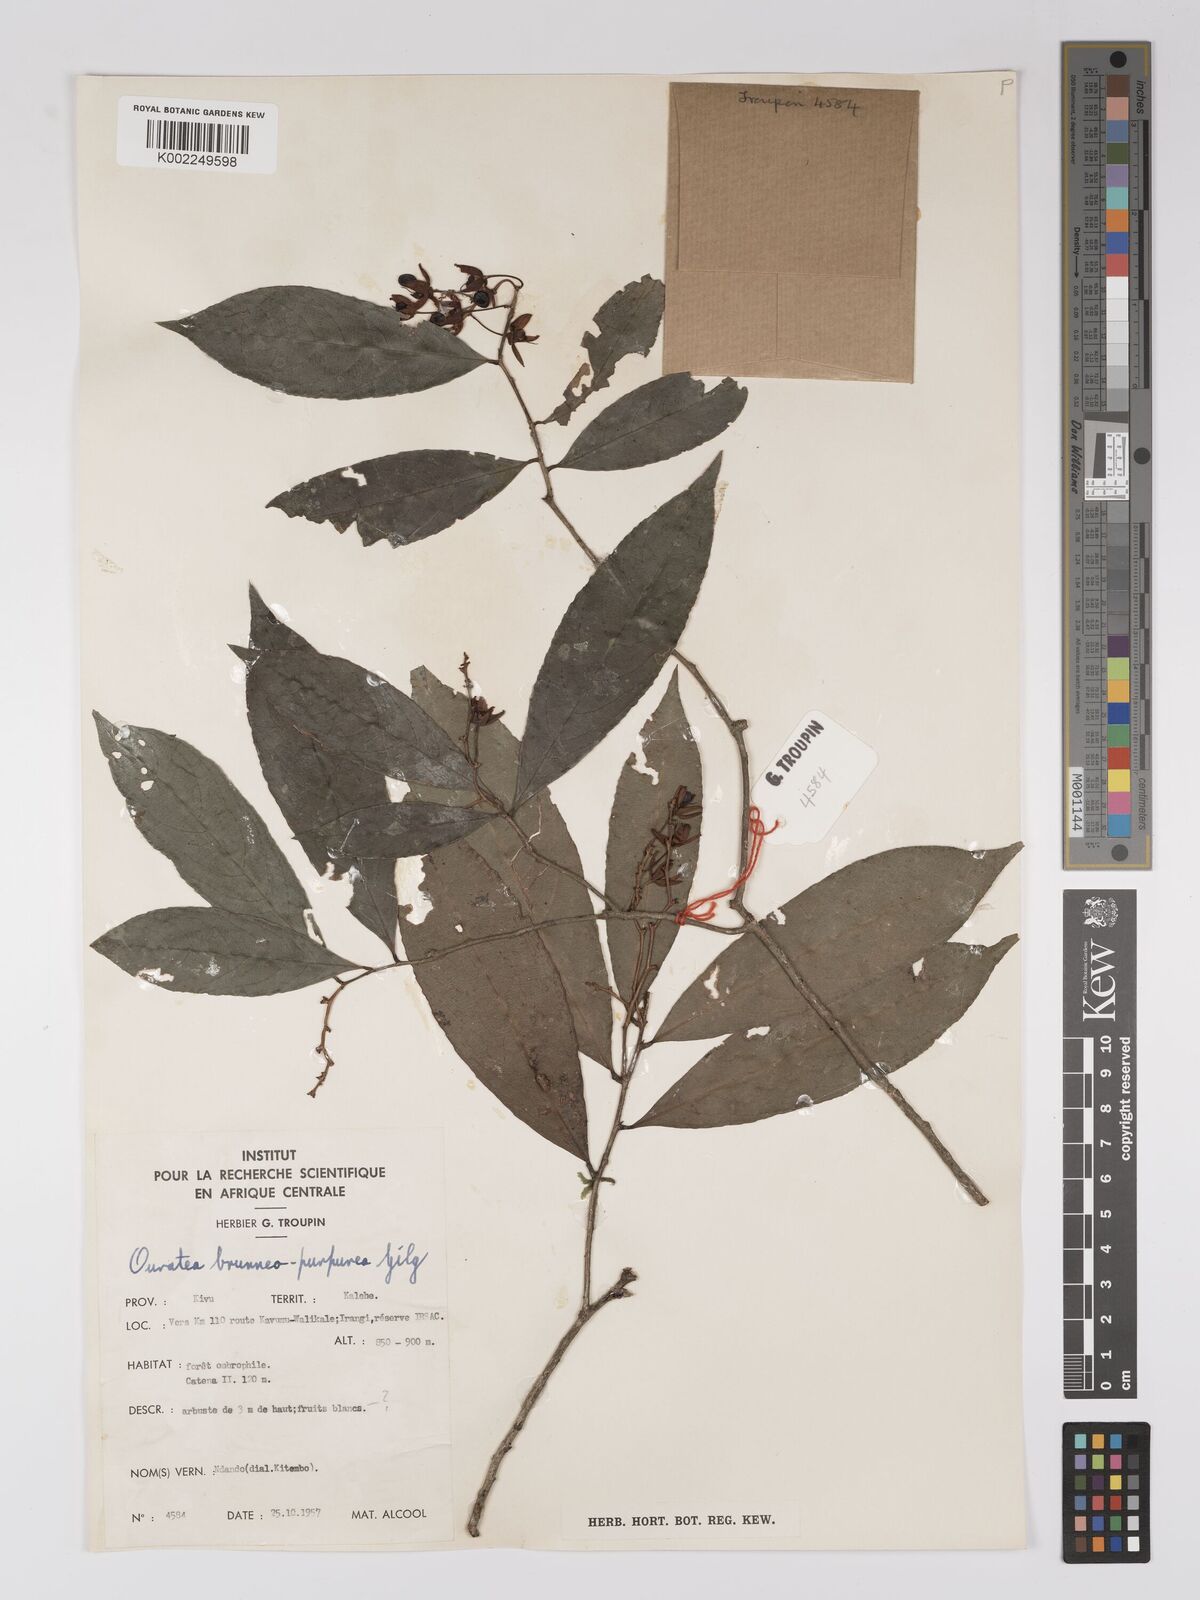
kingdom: Plantae
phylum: Tracheophyta
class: Magnoliopsida
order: Malpighiales
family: Ochnaceae
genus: Campylospermum
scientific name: Campylospermum reticulatum
